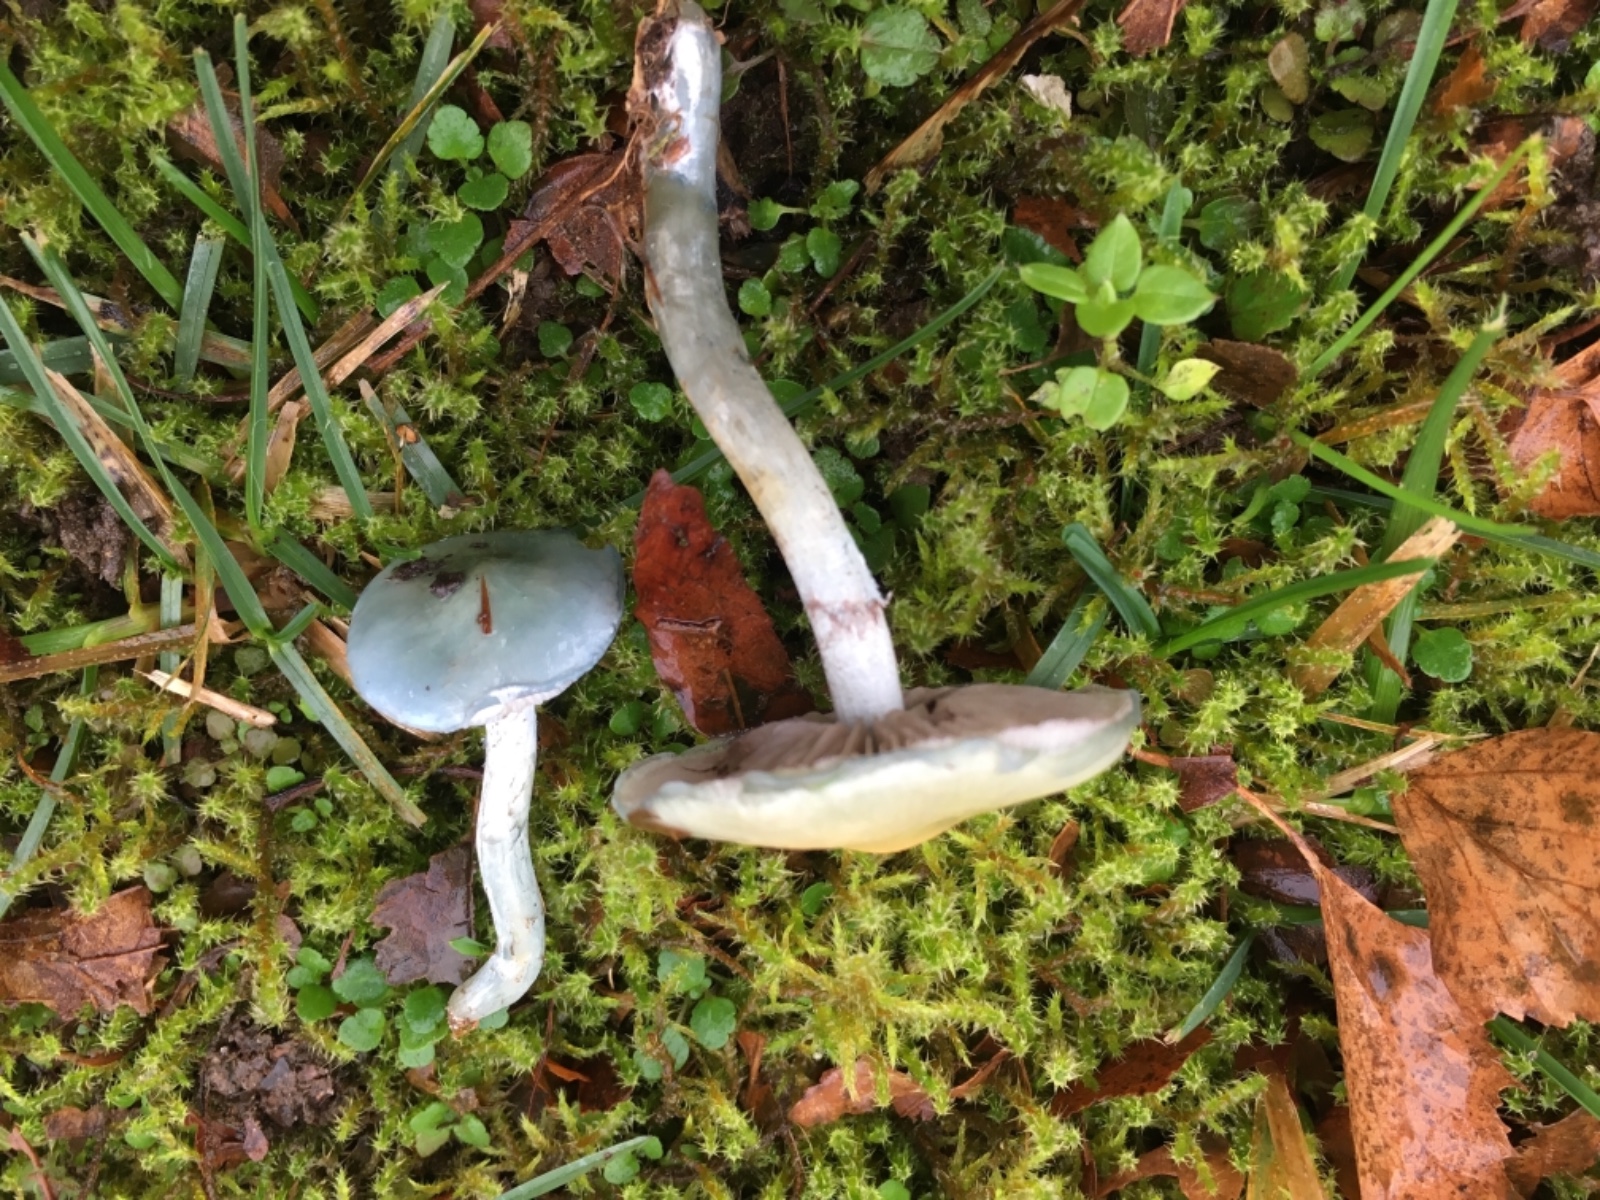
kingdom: Fungi
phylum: Basidiomycota
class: Agaricomycetes
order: Agaricales
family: Strophariaceae
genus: Stropharia
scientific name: Stropharia cyanea
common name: blågrøn bredblad
